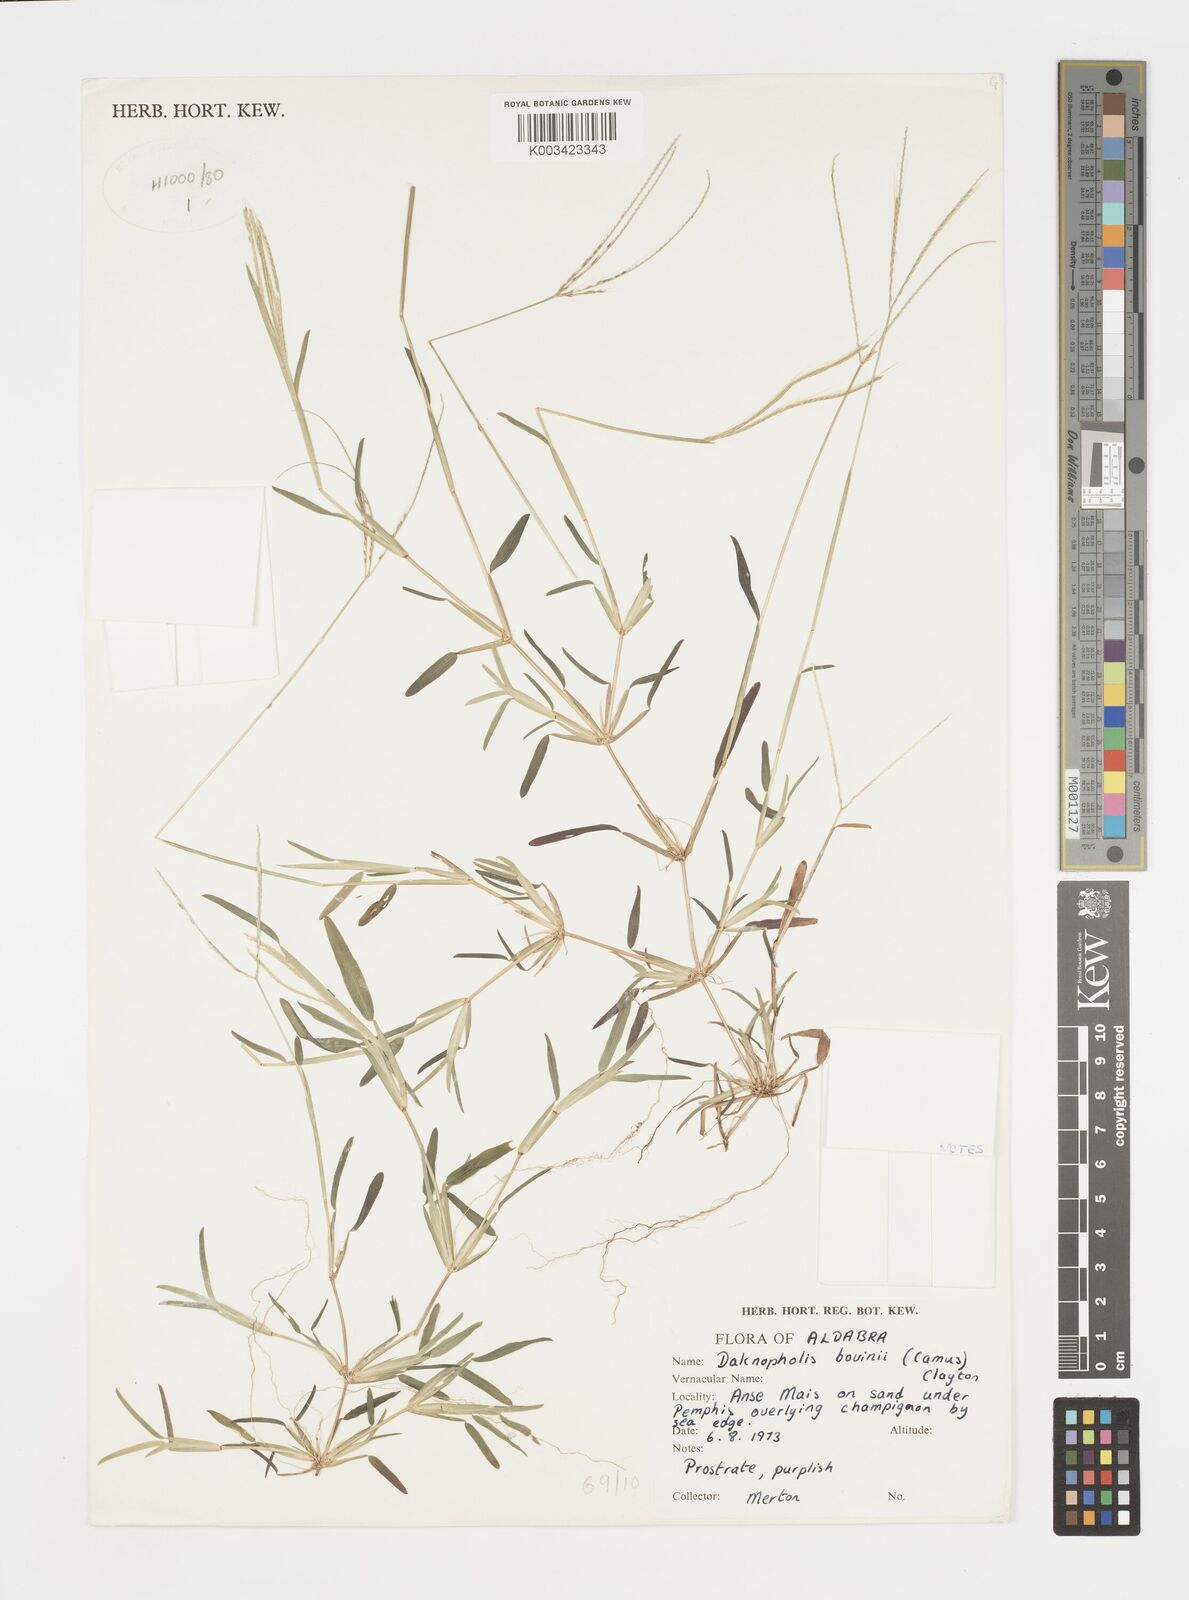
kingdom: Plantae
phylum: Tracheophyta
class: Liliopsida
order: Poales
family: Poaceae
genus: Daknopholis
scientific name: Daknopholis boivinii
